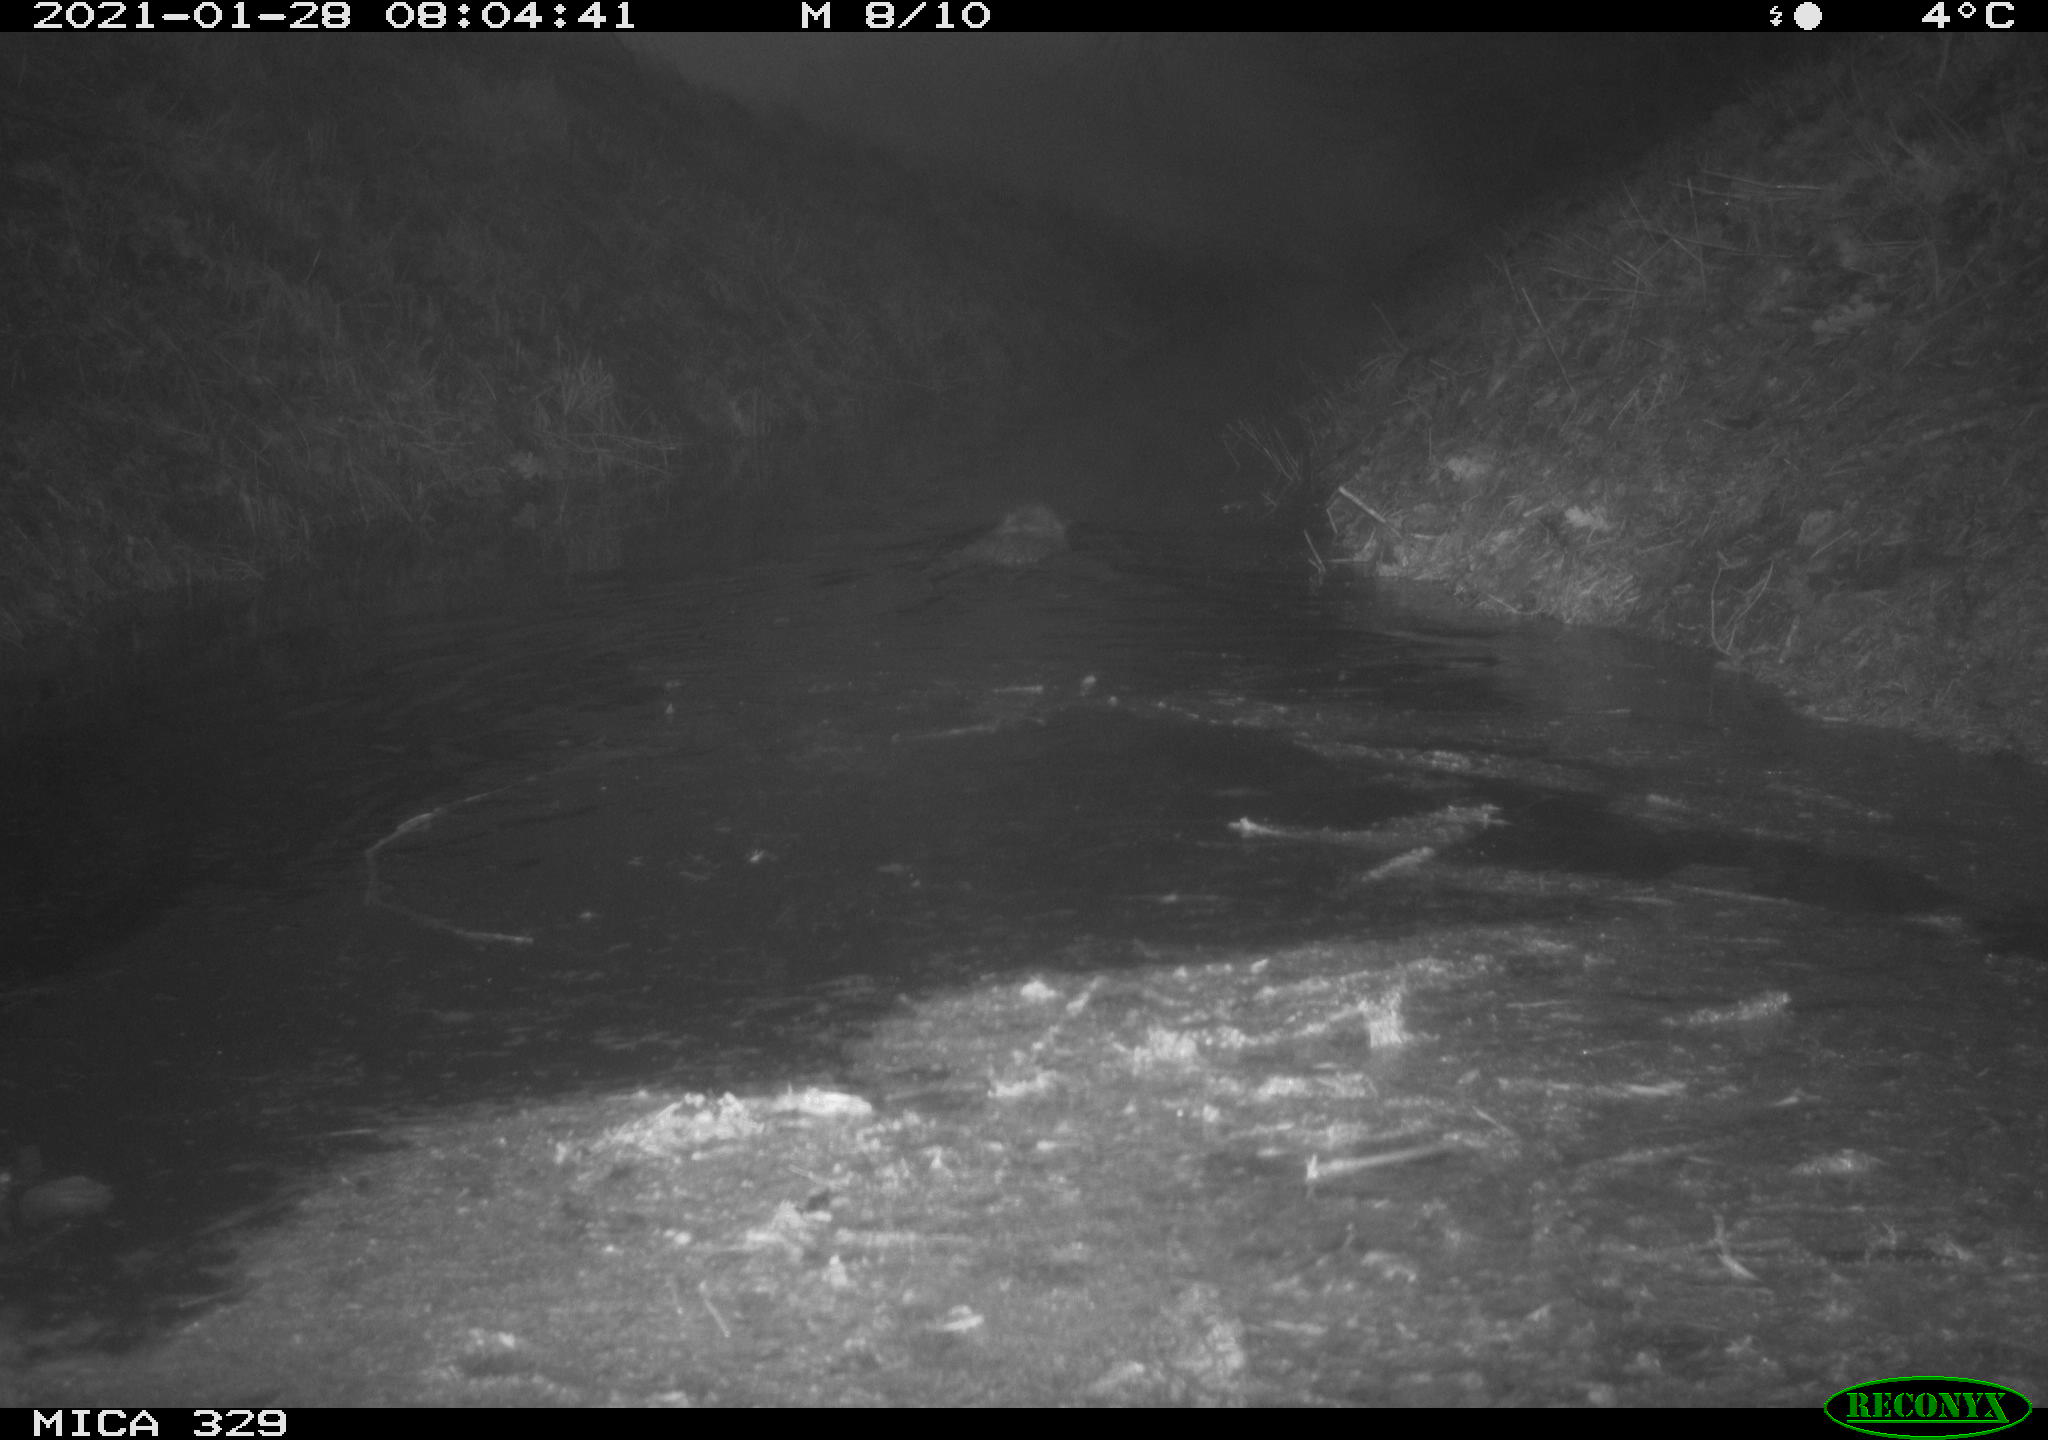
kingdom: Animalia
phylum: Chordata
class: Mammalia
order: Rodentia
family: Myocastoridae
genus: Myocastor
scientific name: Myocastor coypus
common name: Coypu
